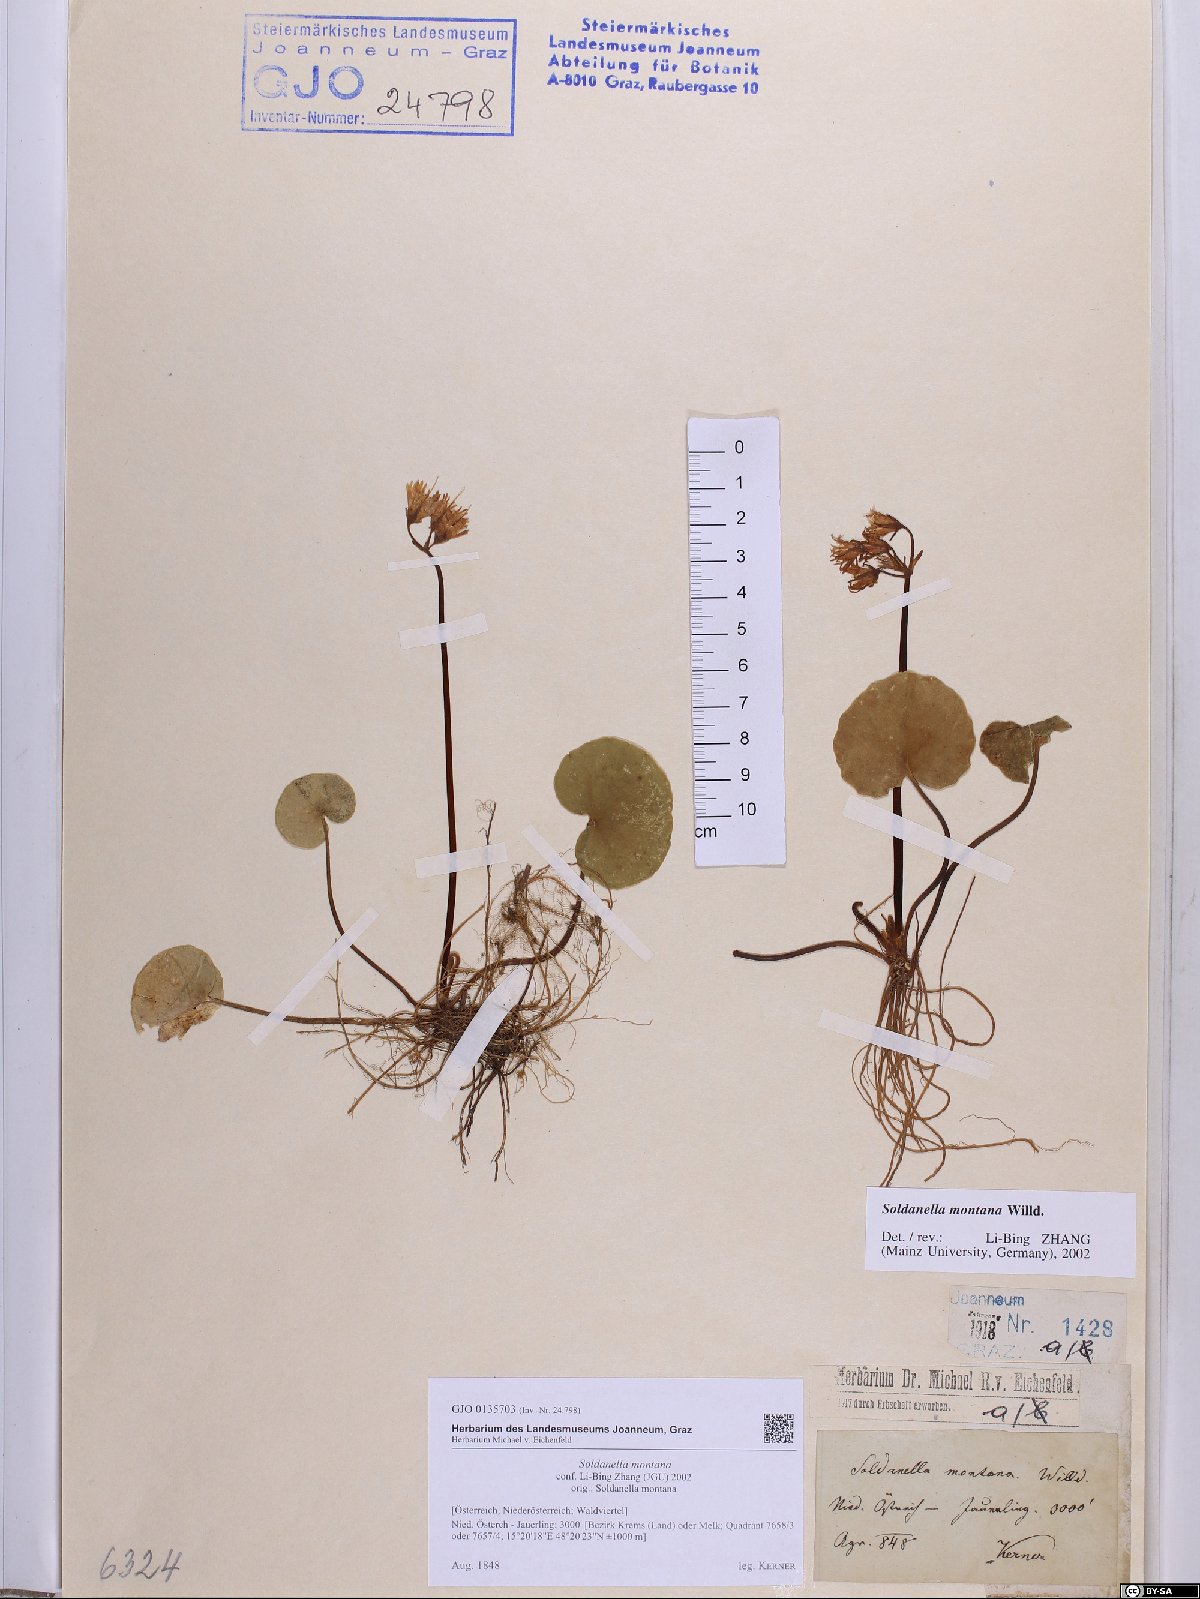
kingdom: Plantae
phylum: Tracheophyta
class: Magnoliopsida
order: Ericales
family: Primulaceae
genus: Soldanella
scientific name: Soldanella montana
